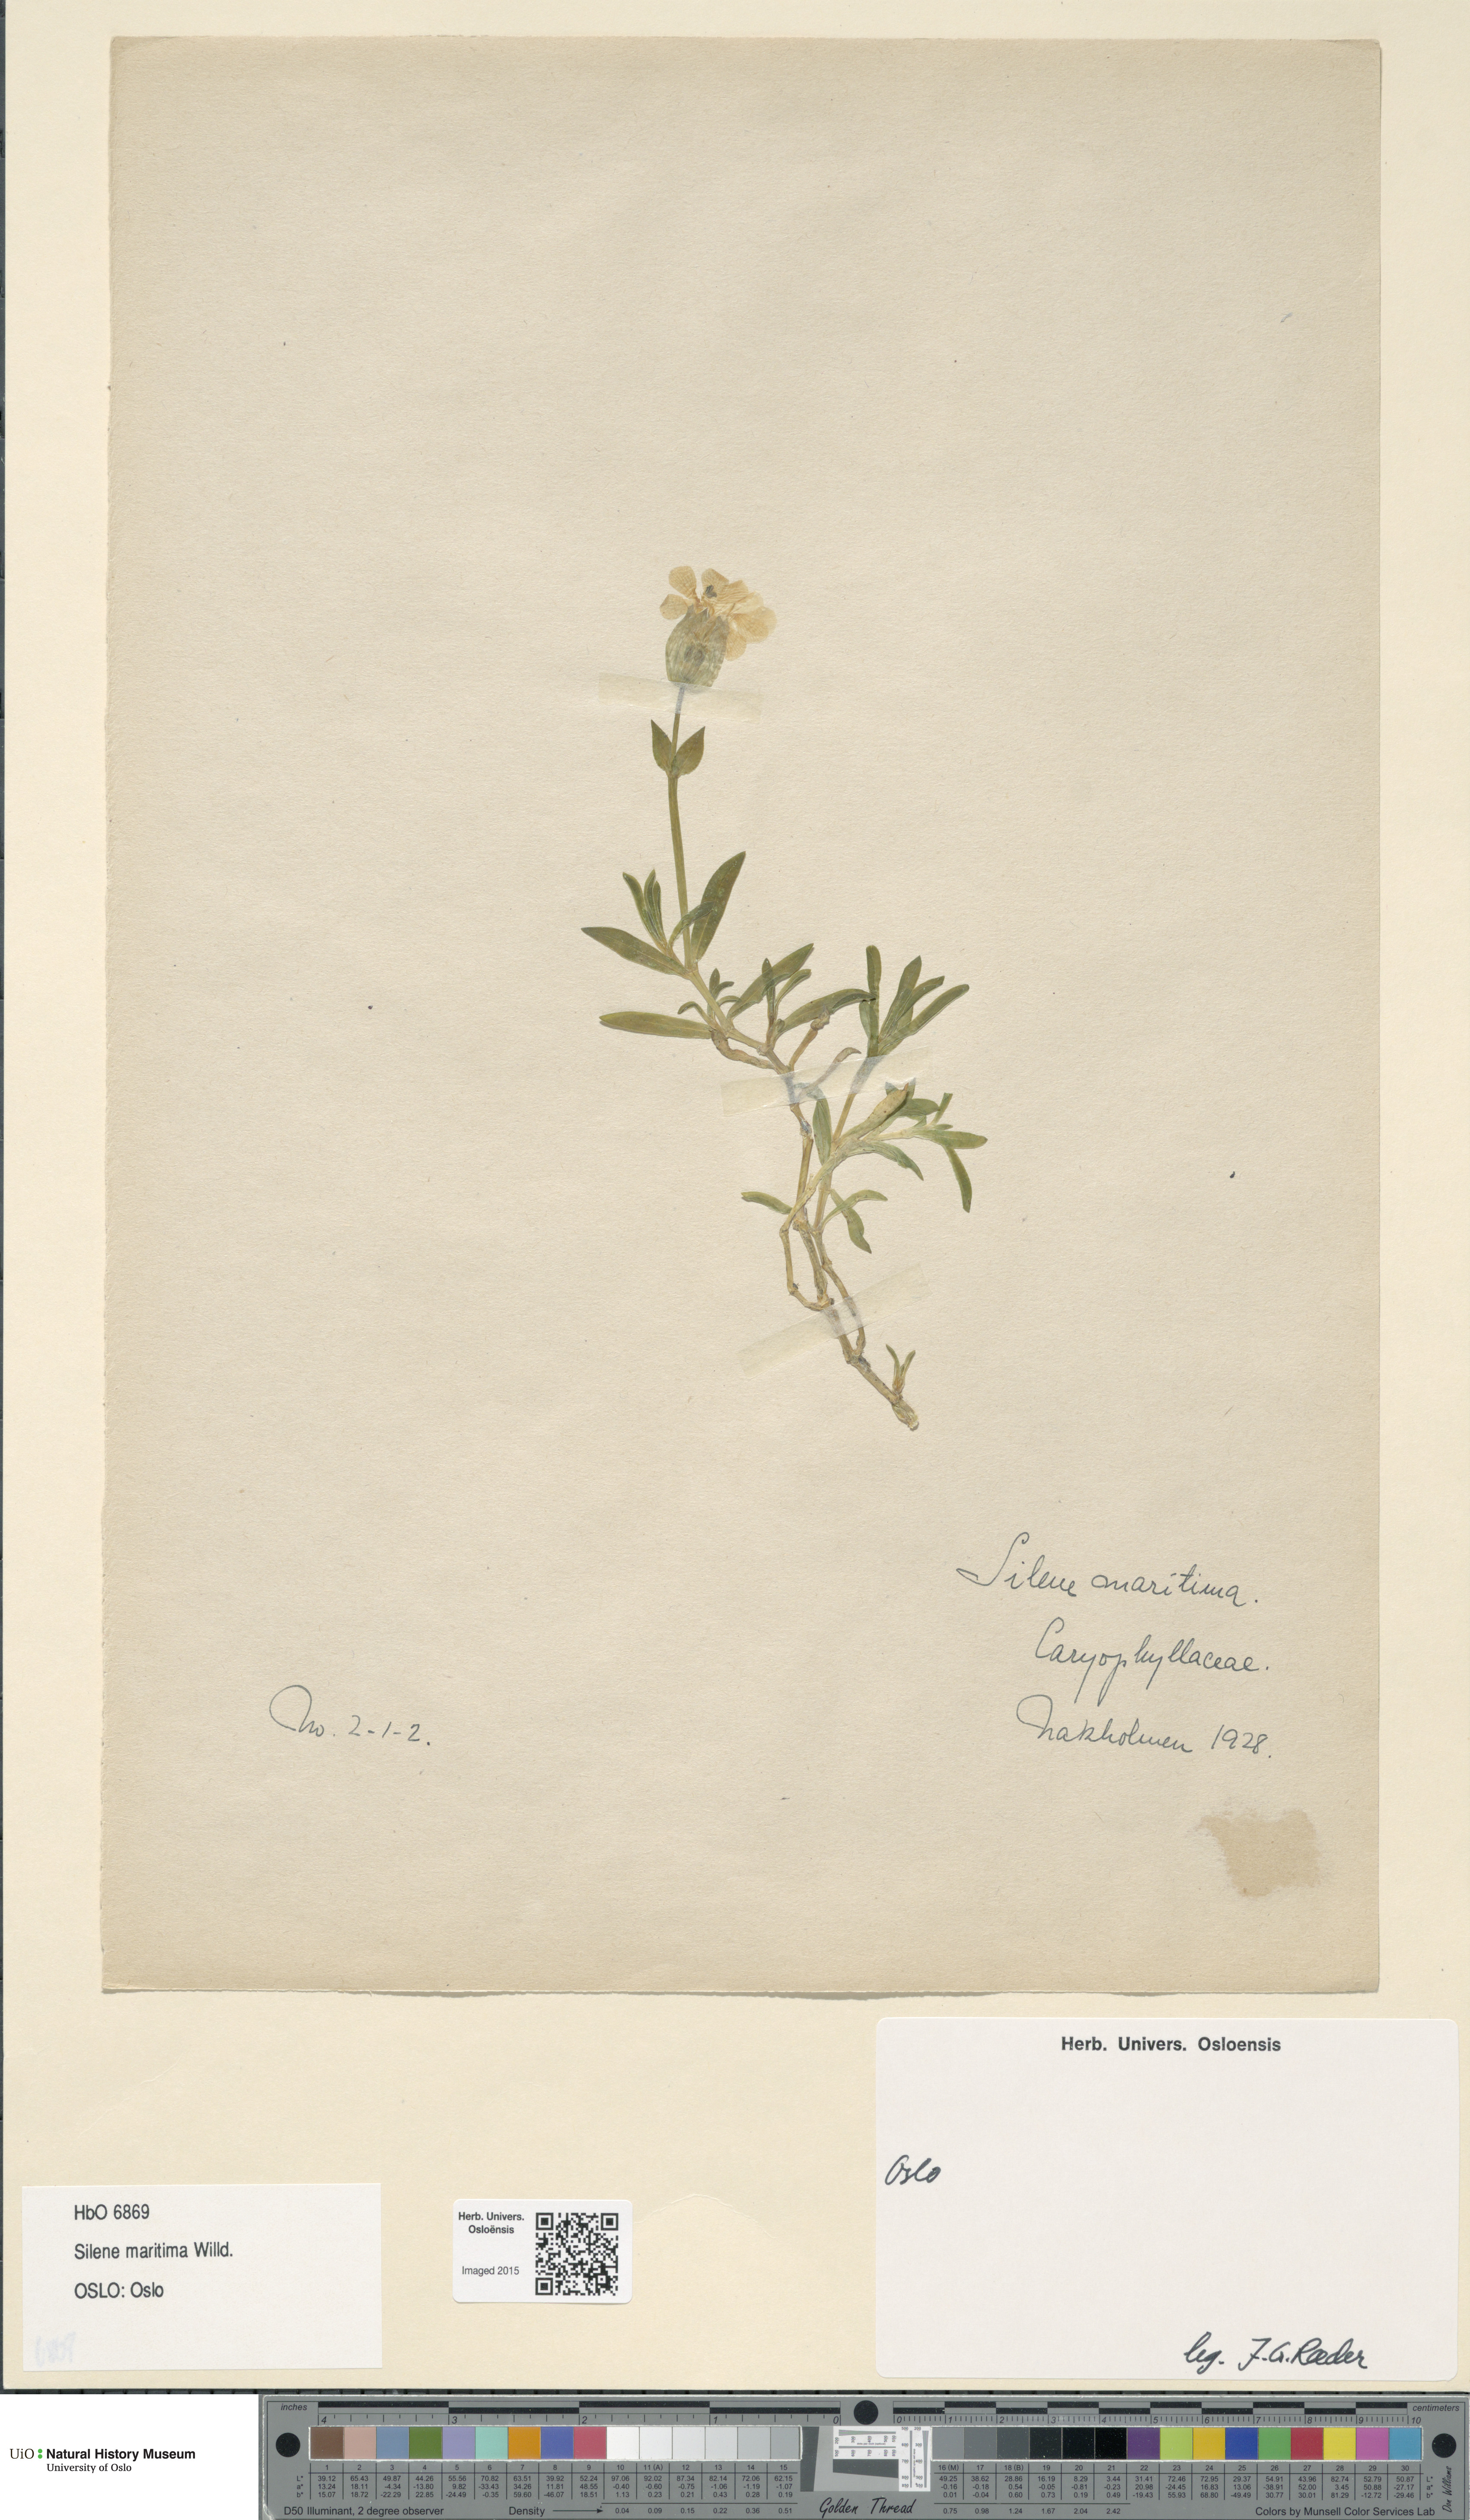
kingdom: Plantae
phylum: Tracheophyta
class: Magnoliopsida
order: Caryophyllales
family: Caryophyllaceae
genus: Silene
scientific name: Silene uniflora
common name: Sea campion
